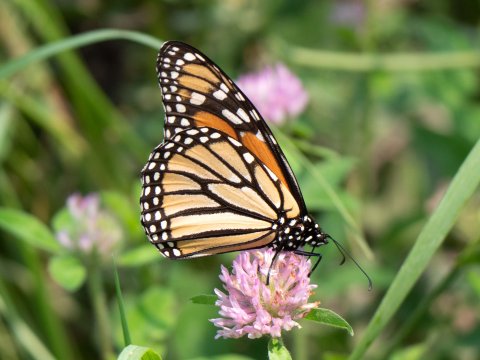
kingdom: Animalia
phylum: Arthropoda
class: Insecta
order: Lepidoptera
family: Nymphalidae
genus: Danaus
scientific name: Danaus plexippus
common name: Monarch
